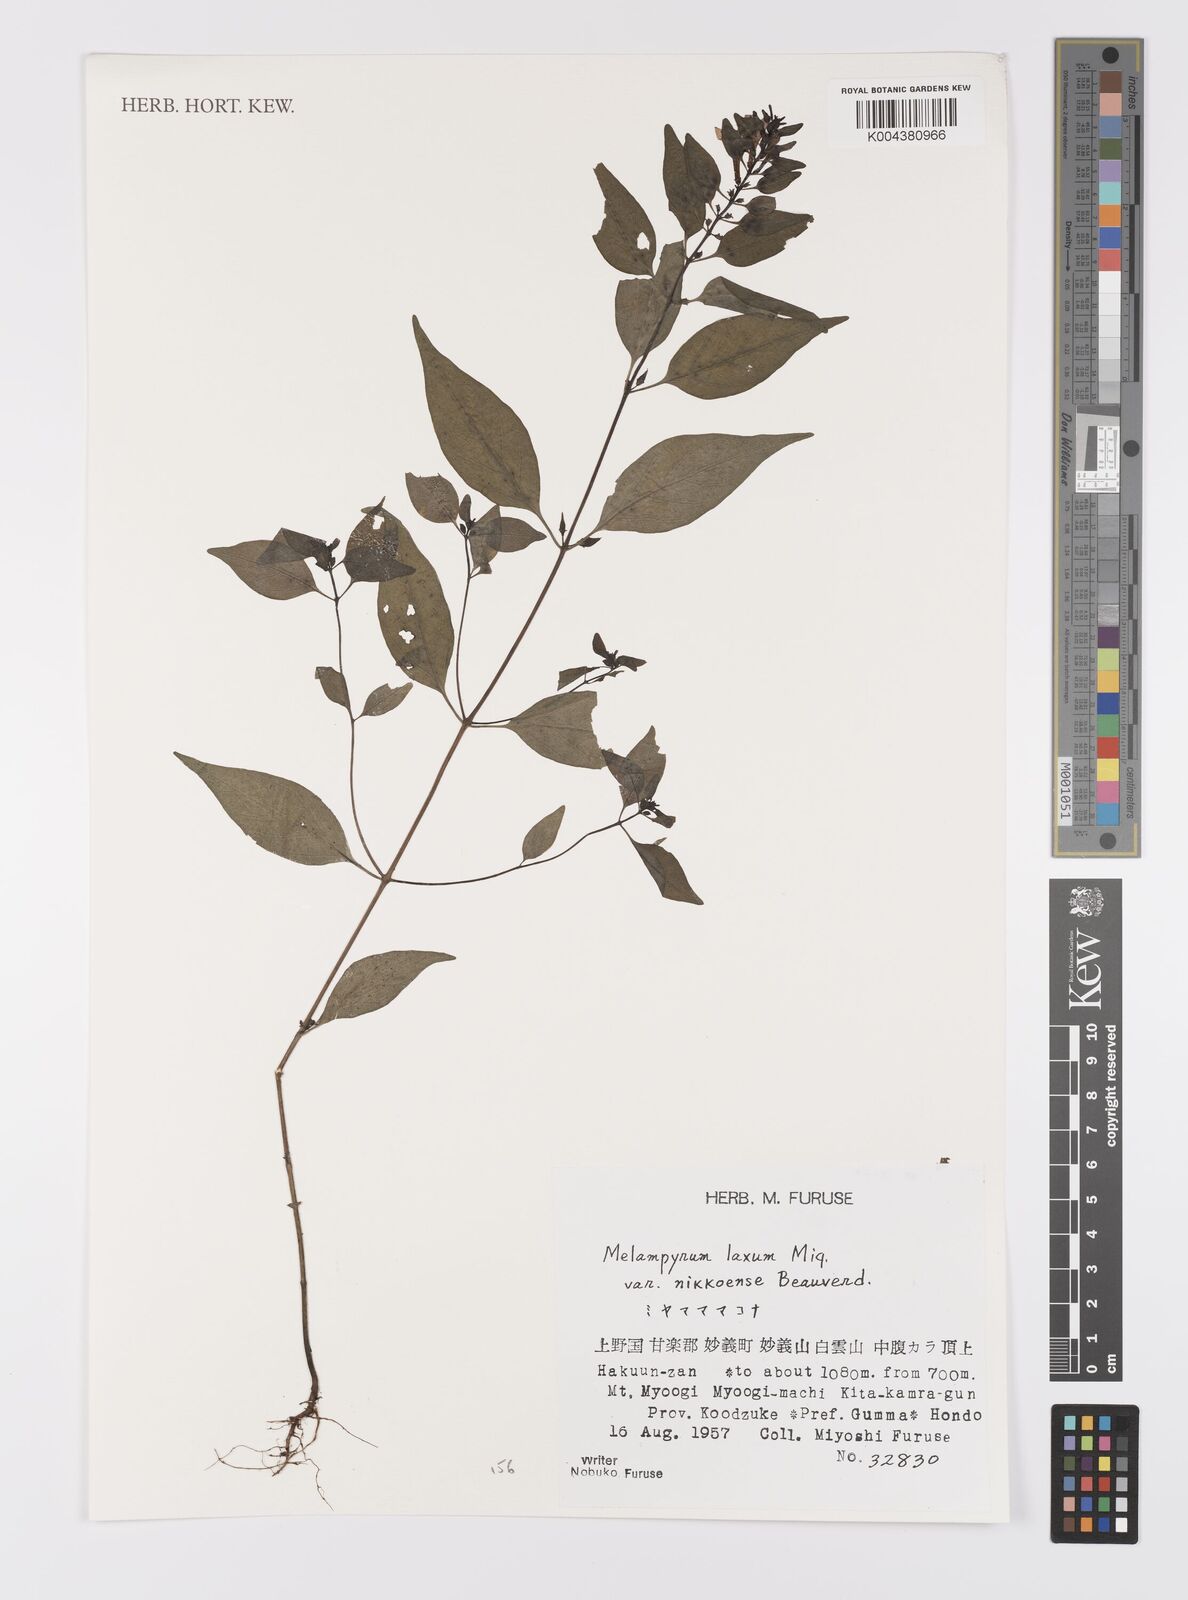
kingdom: Plantae
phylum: Tracheophyta
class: Magnoliopsida
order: Lamiales
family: Orobanchaceae
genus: Melampyrum
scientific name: Melampyrum laxum
